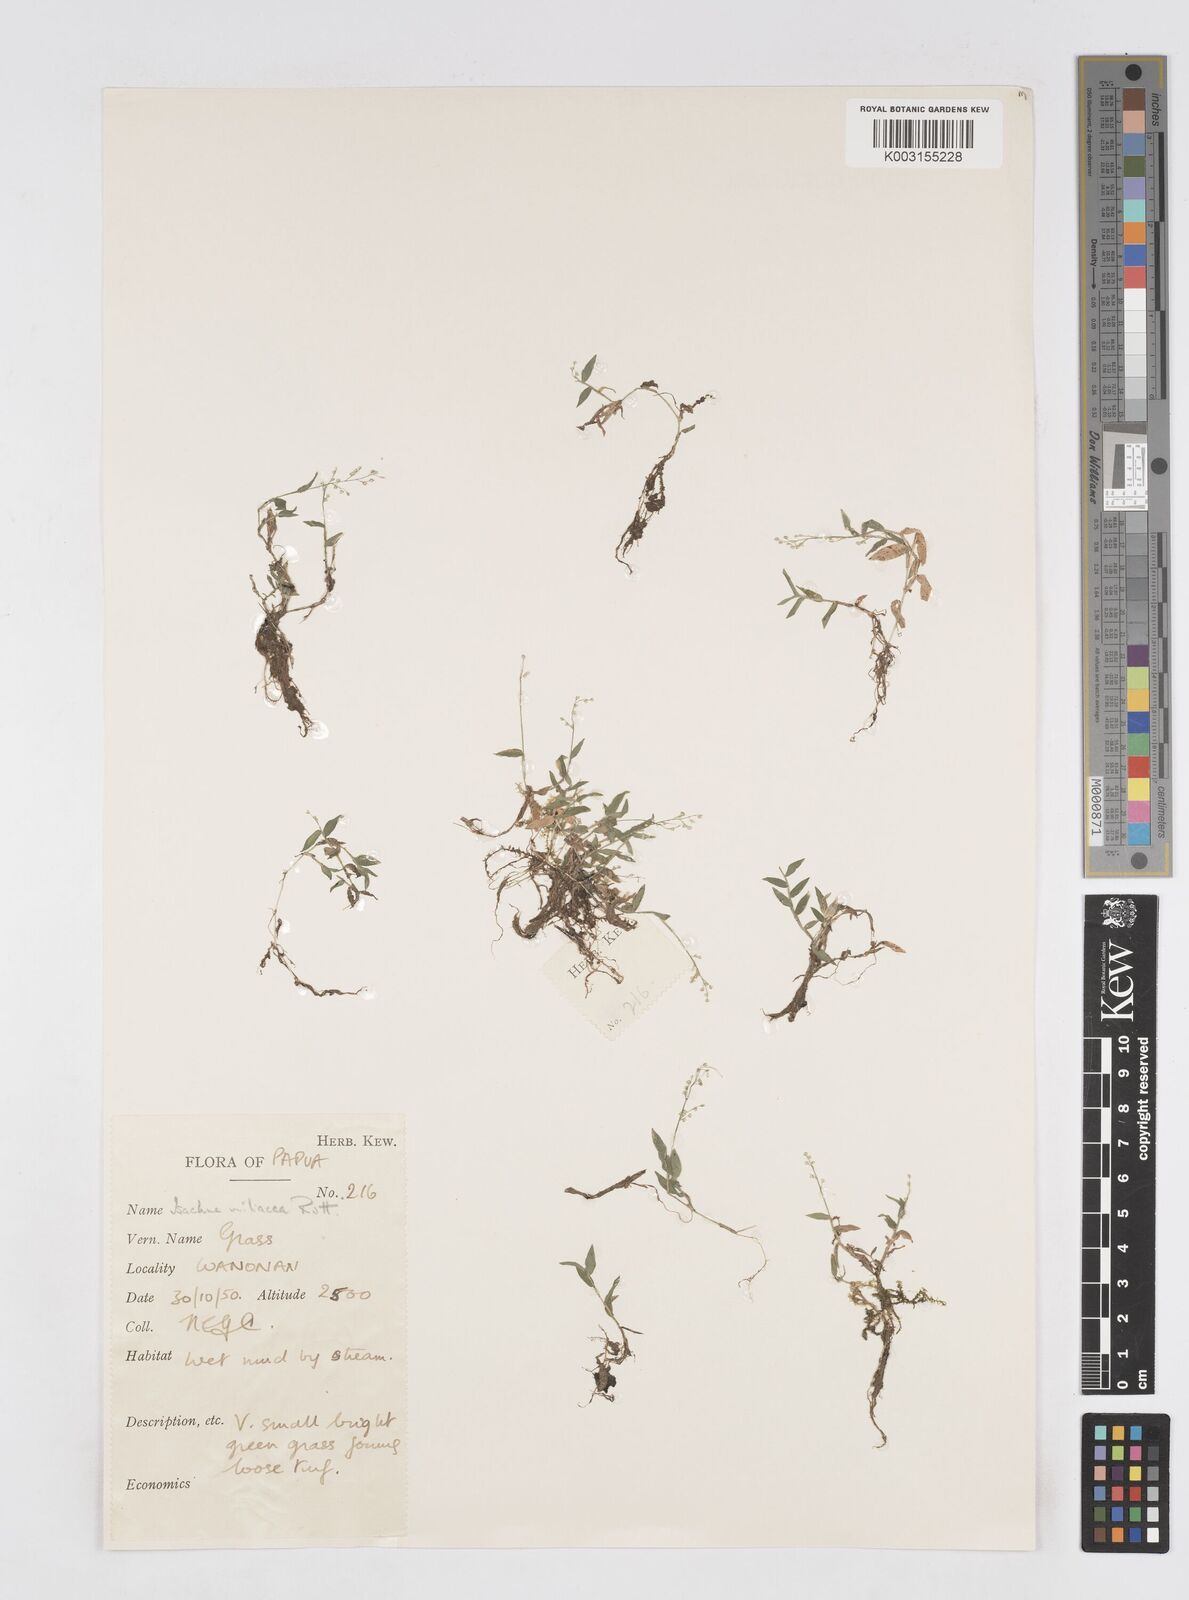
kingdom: Plantae
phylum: Tracheophyta
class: Liliopsida
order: Poales
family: Poaceae
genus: Isachne
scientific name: Isachne globosa
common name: Swamp millet
